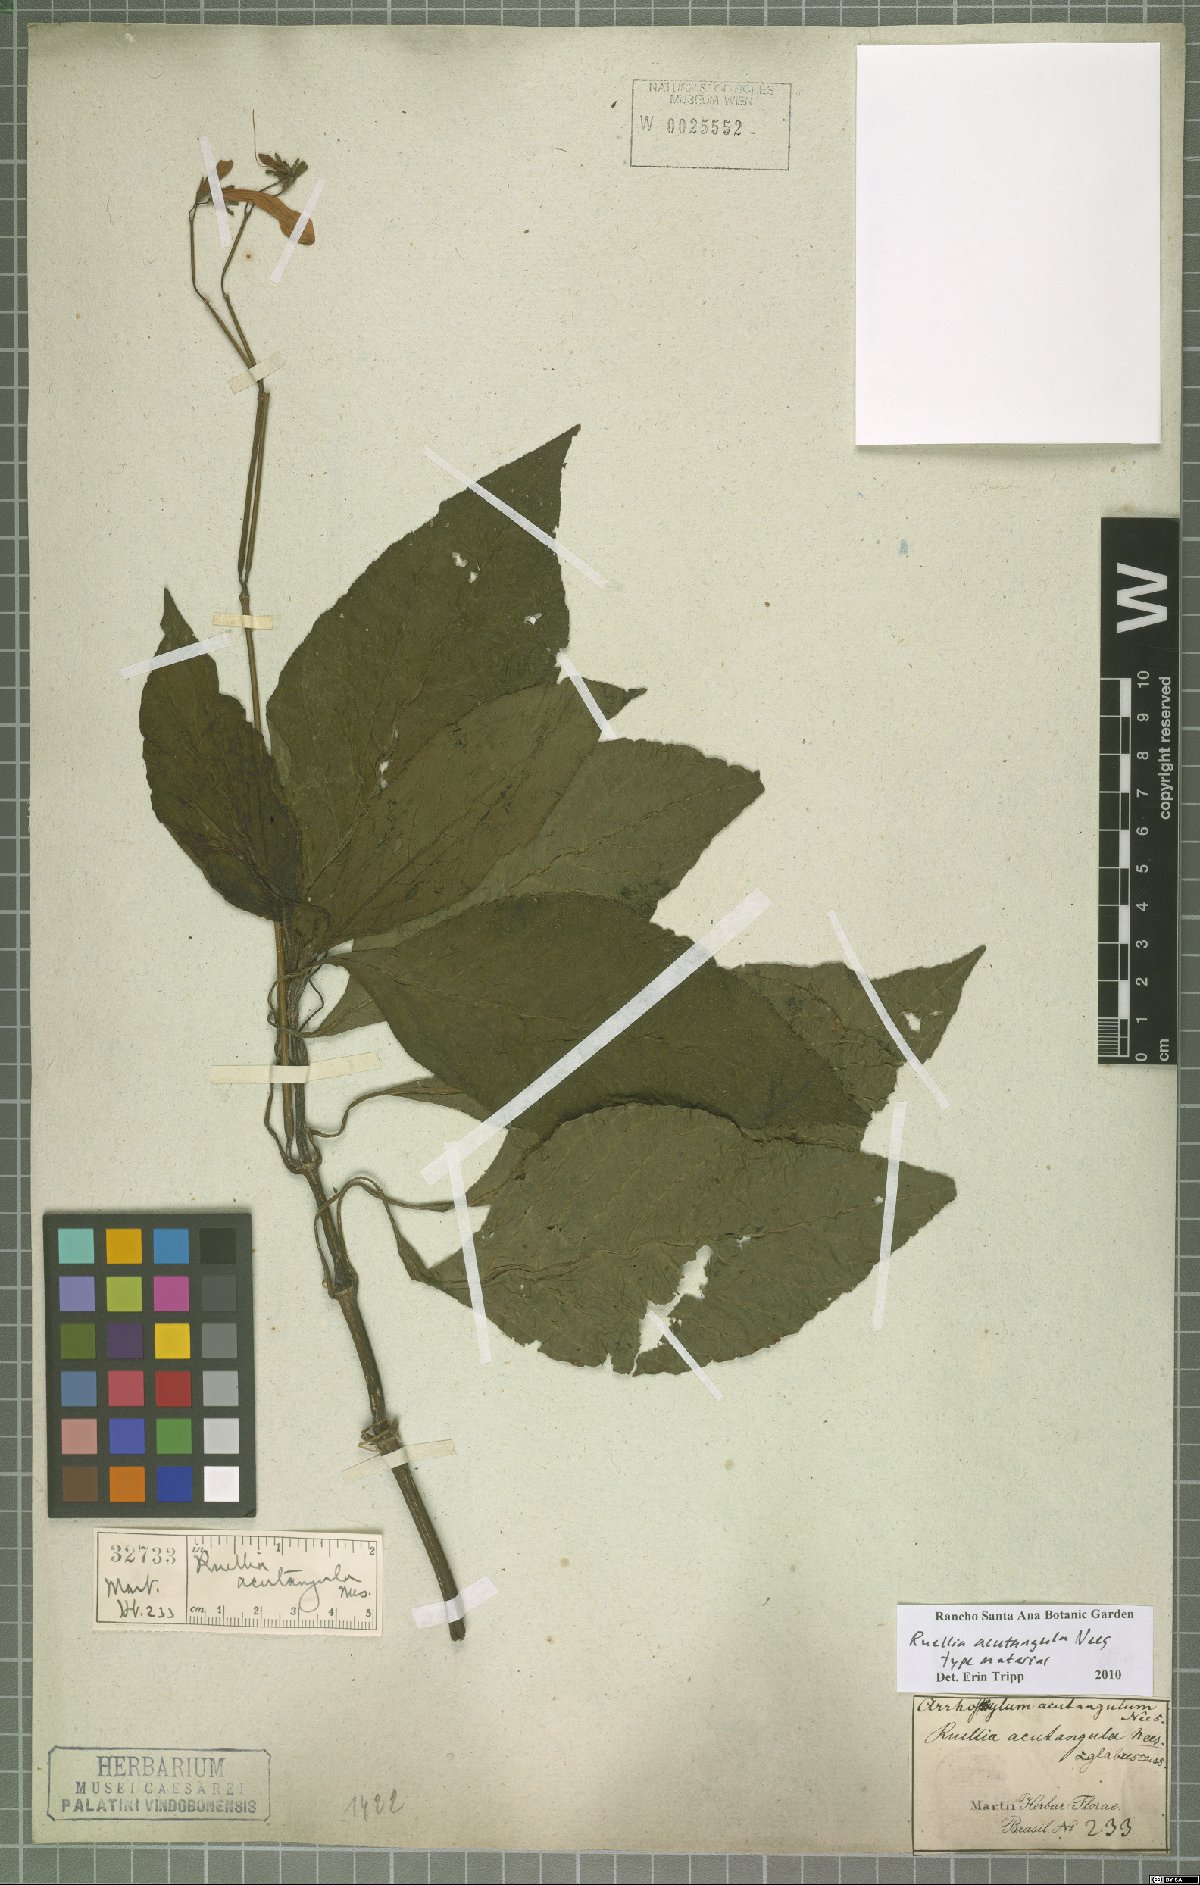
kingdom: Plantae
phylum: Tracheophyta
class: Magnoliopsida
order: Lamiales
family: Acanthaceae
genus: Ruellia
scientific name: Ruellia acutangula
